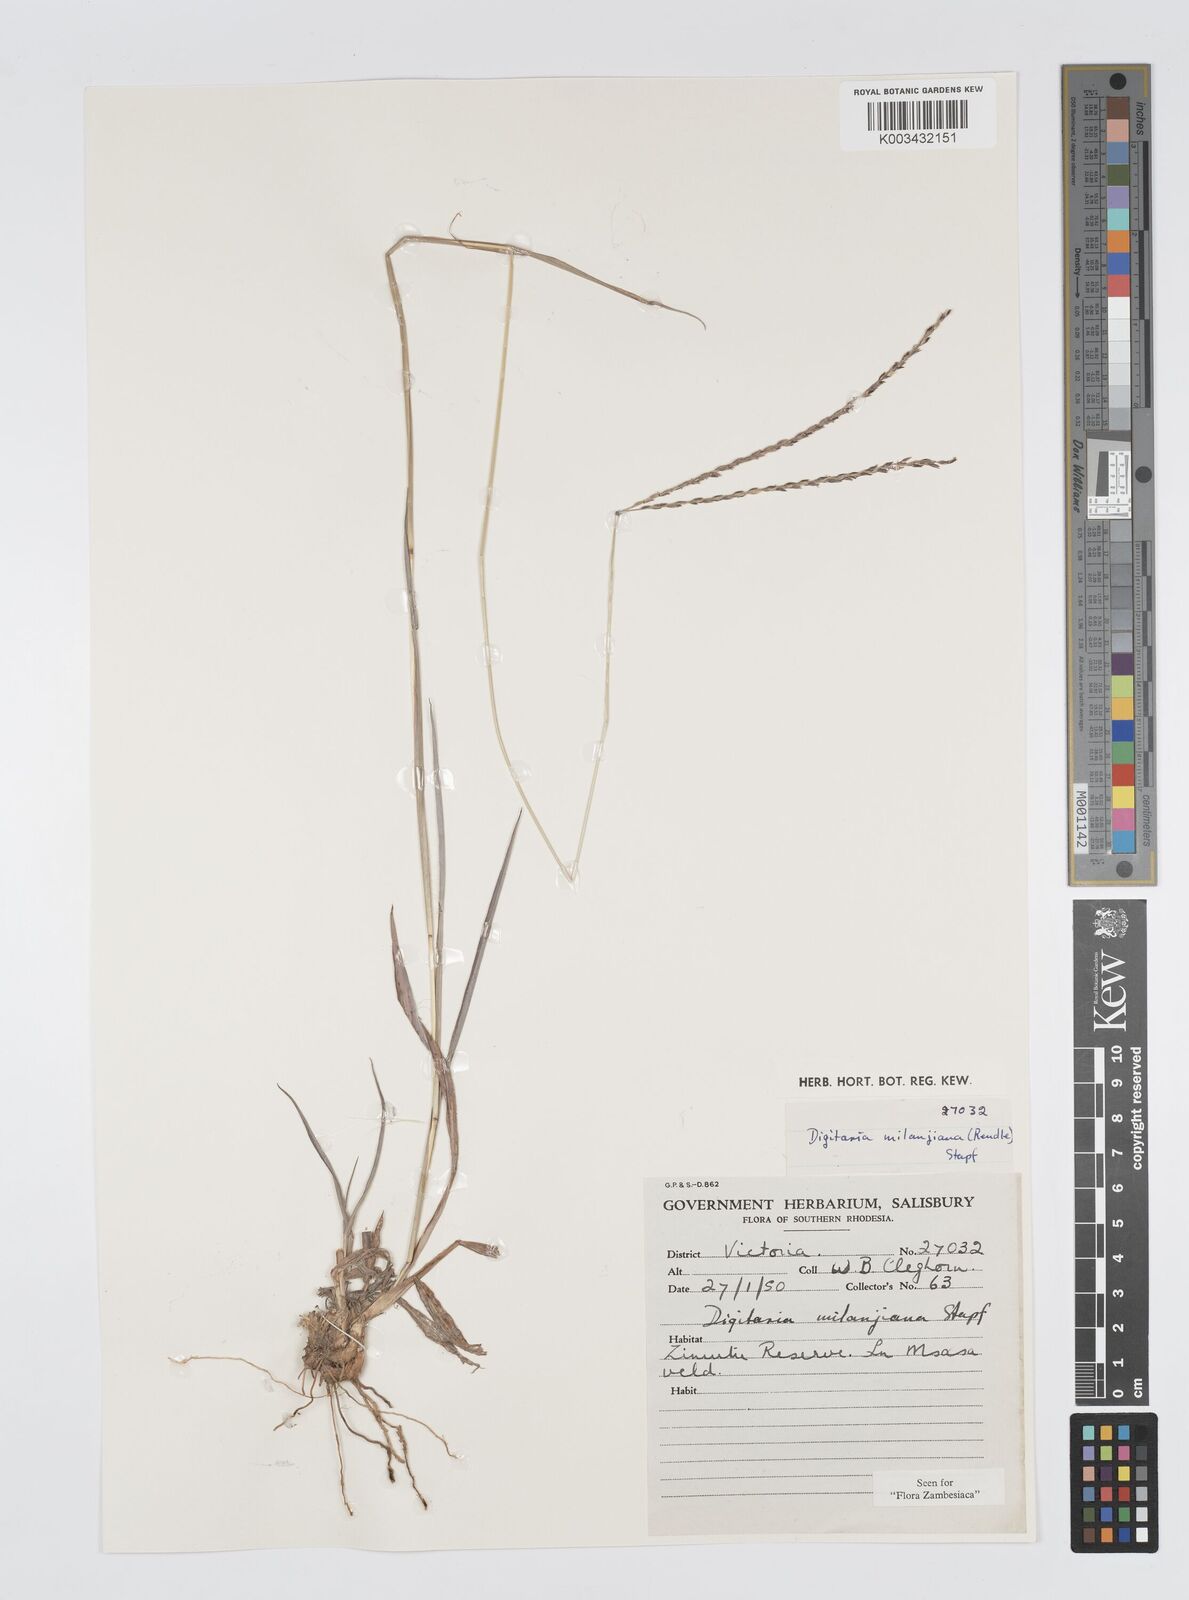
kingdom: Plantae
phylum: Tracheophyta
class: Liliopsida
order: Poales
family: Poaceae
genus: Digitaria
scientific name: Digitaria milanjiana
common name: Madagascar crabgrass
